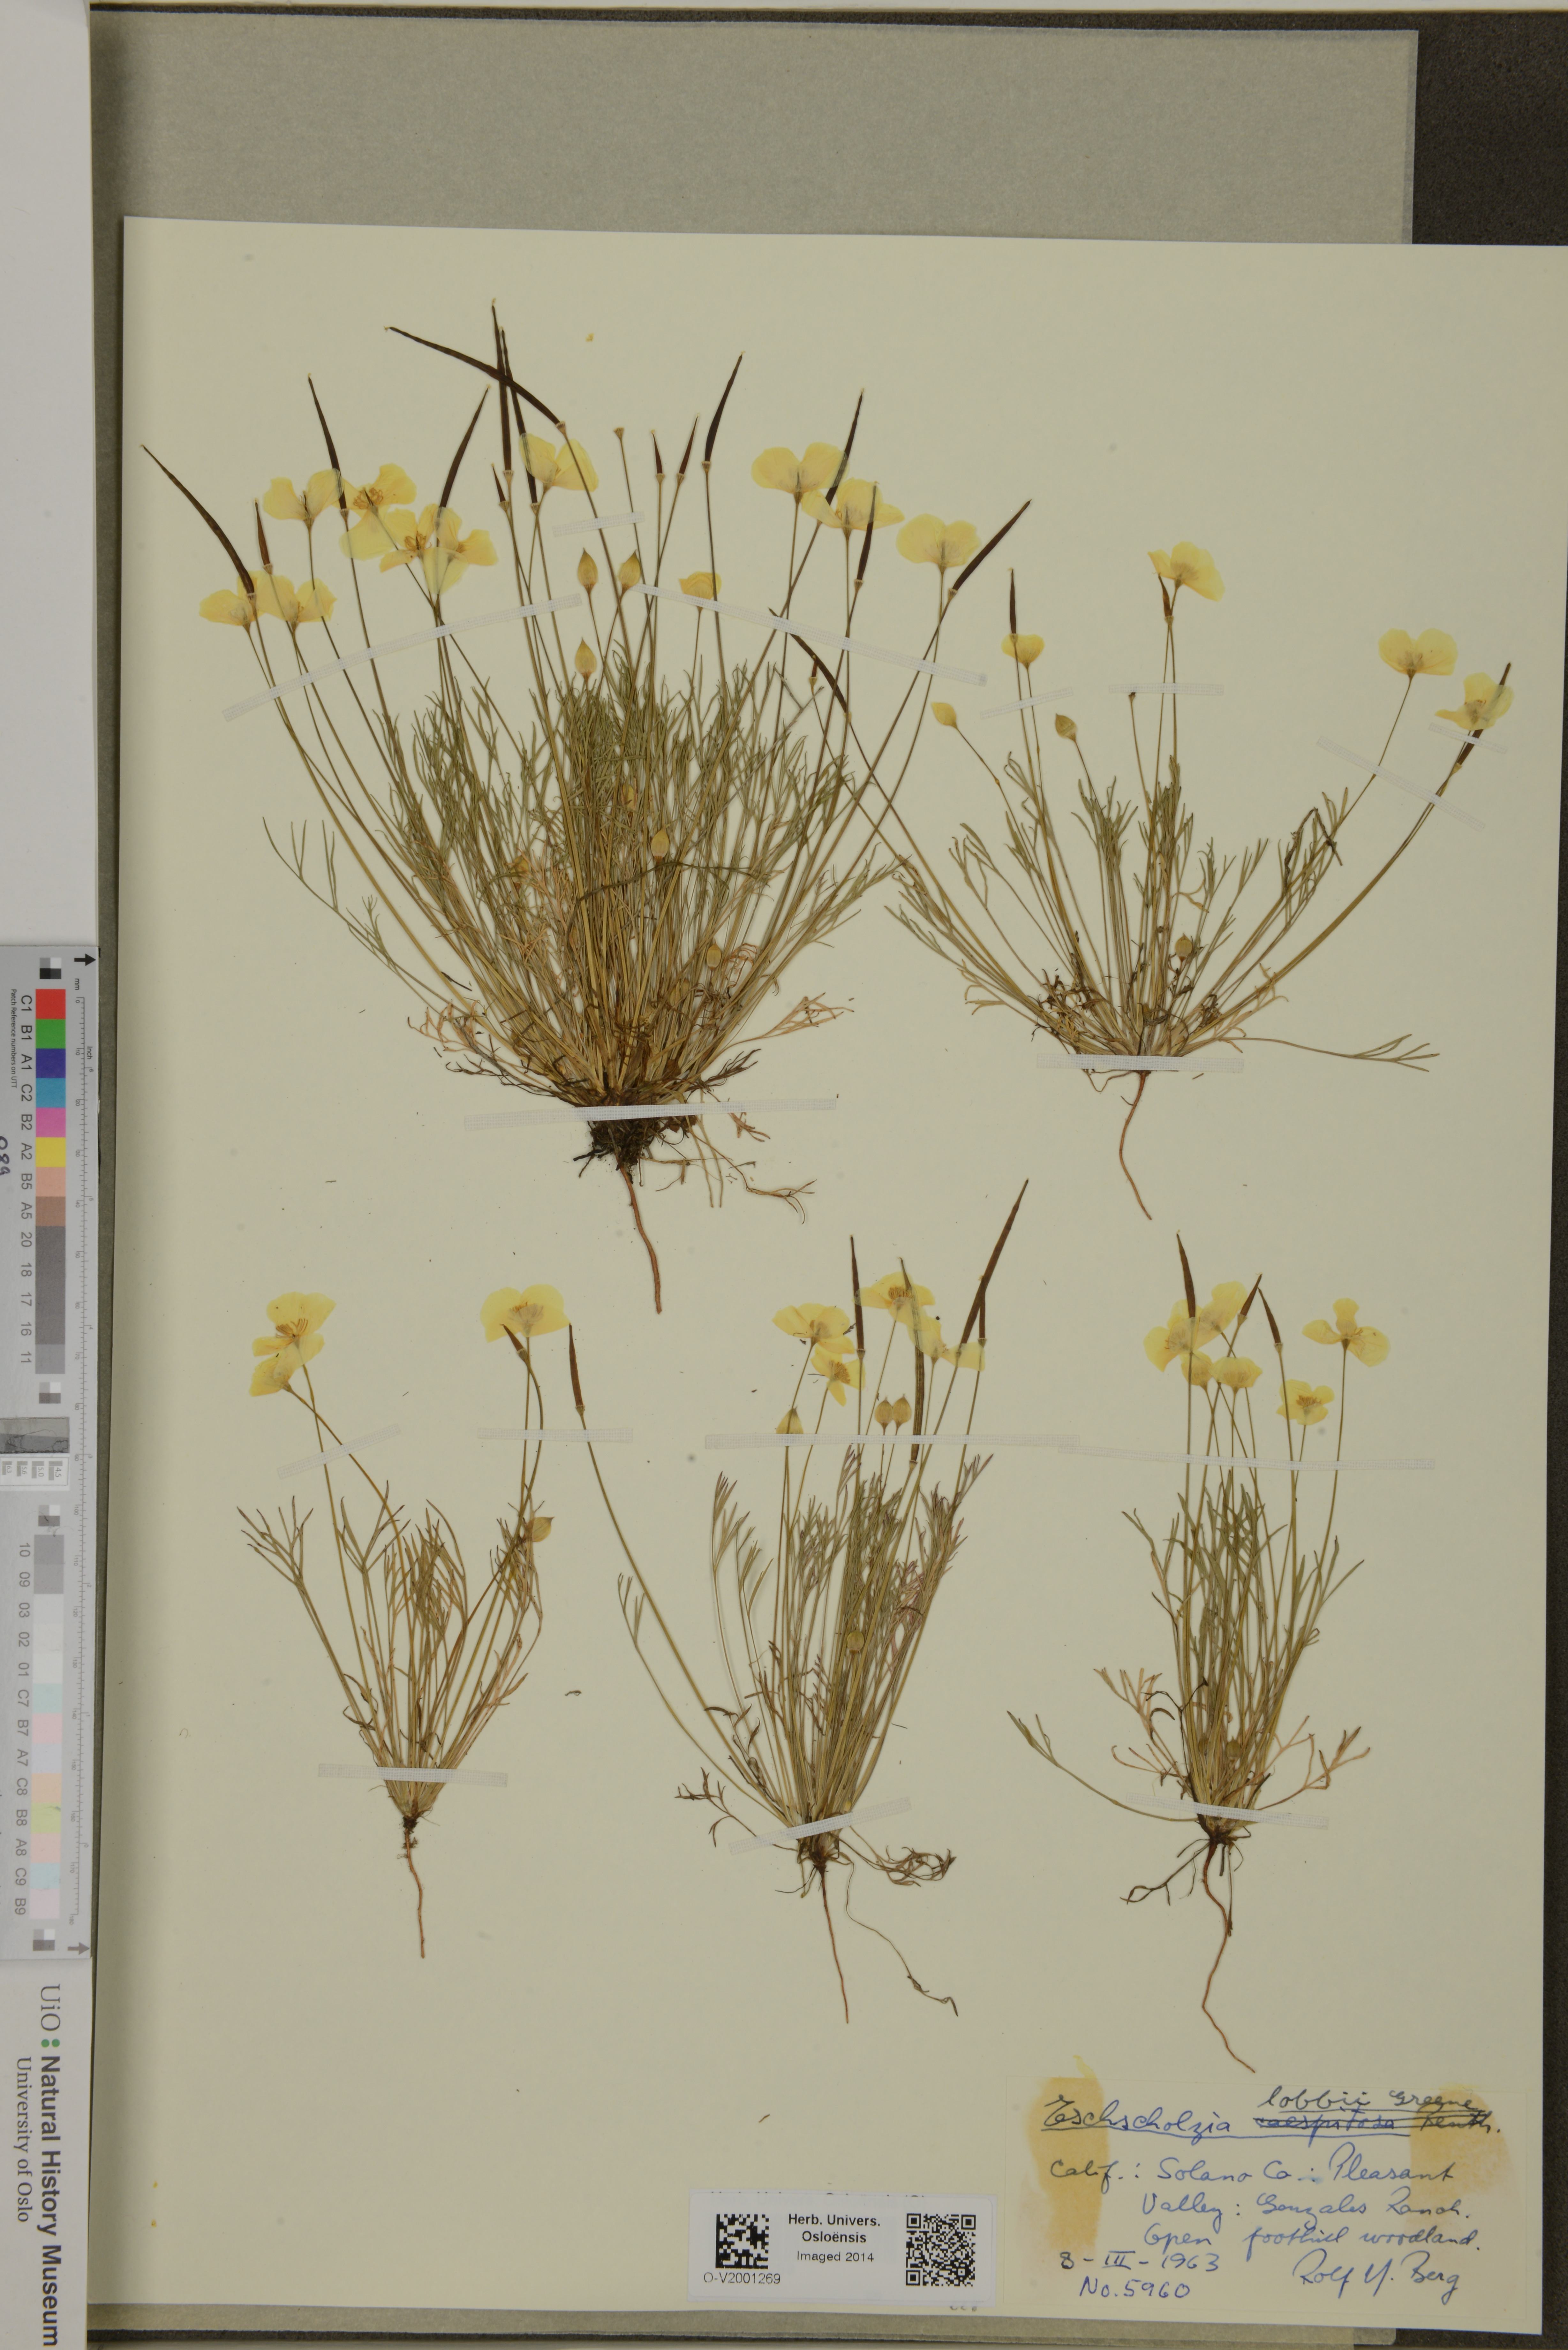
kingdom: Plantae
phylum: Tracheophyta
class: Magnoliopsida
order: Ranunculales
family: Papaveraceae
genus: Eschscholzia
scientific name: Eschscholzia lobbii
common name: Frying-pans
